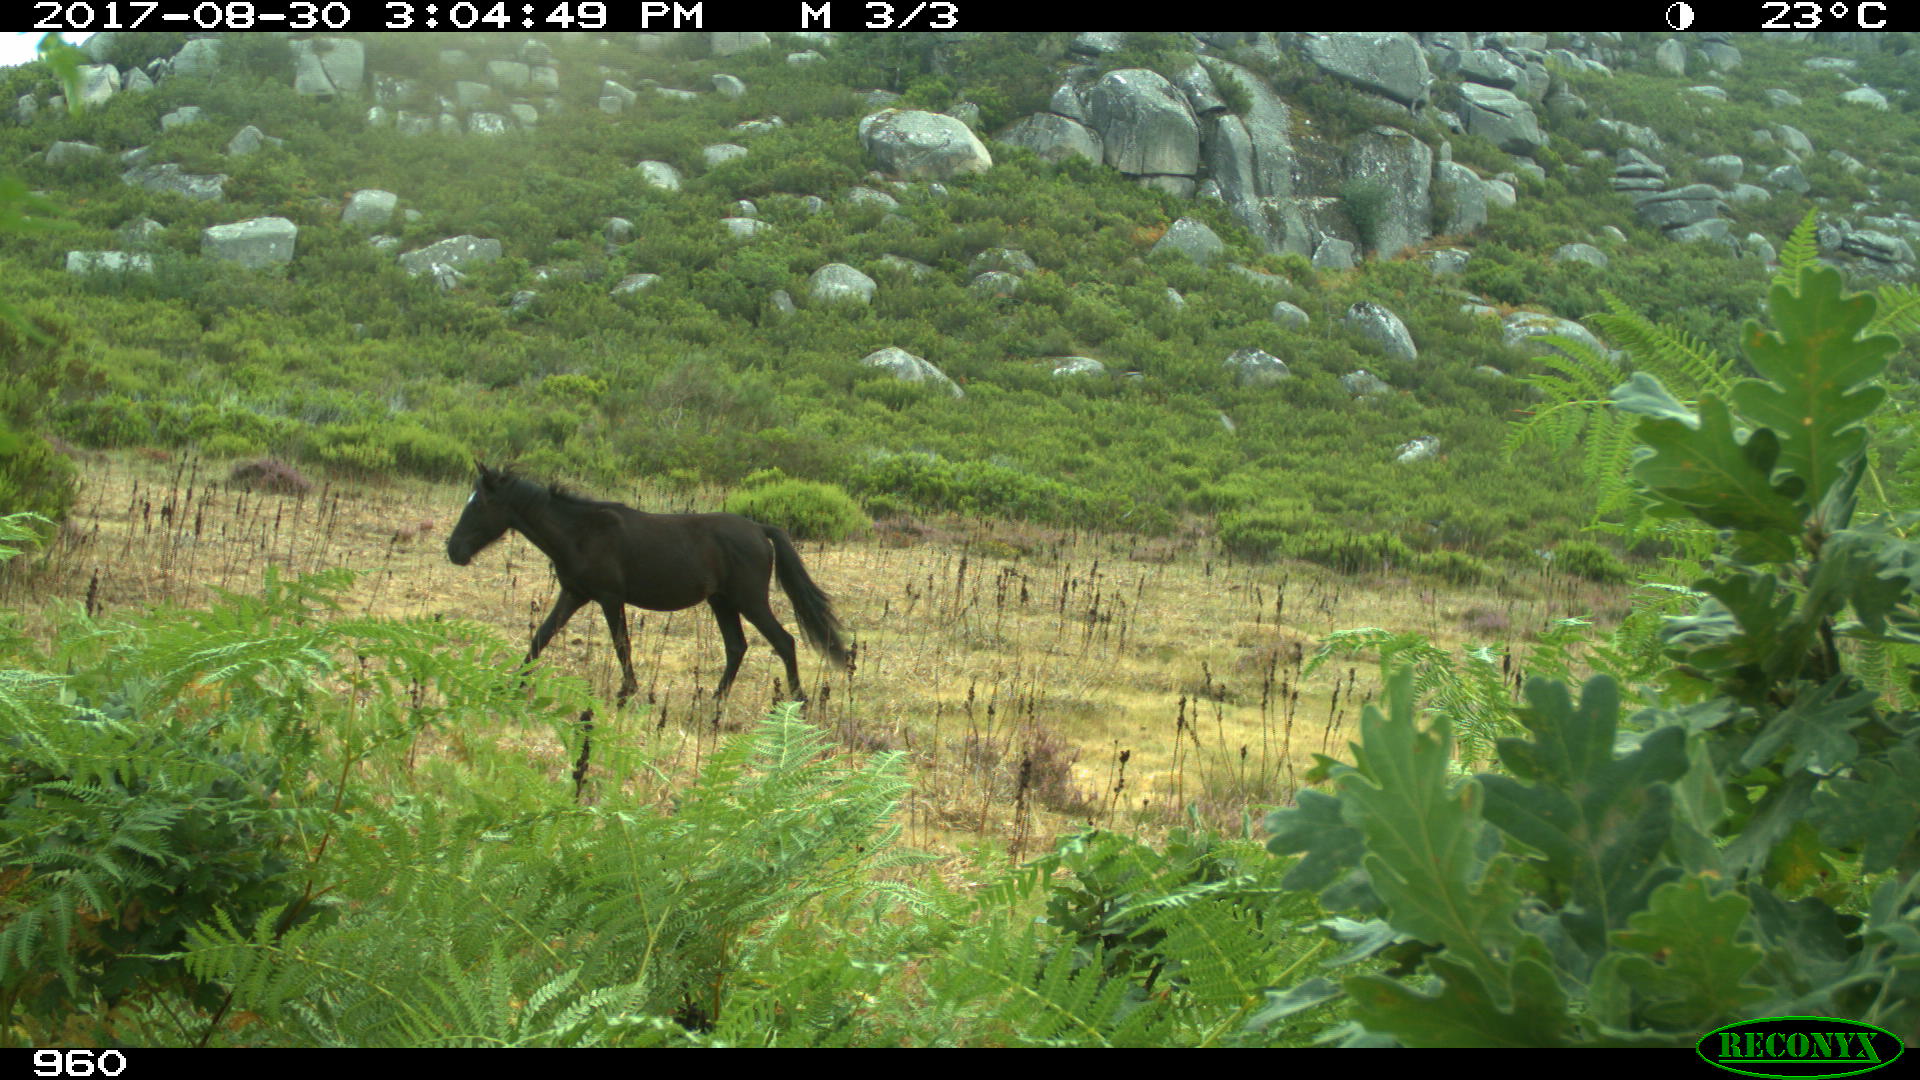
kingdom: Animalia
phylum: Chordata
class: Mammalia
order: Perissodactyla
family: Equidae
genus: Equus
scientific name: Equus caballus
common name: Horse
